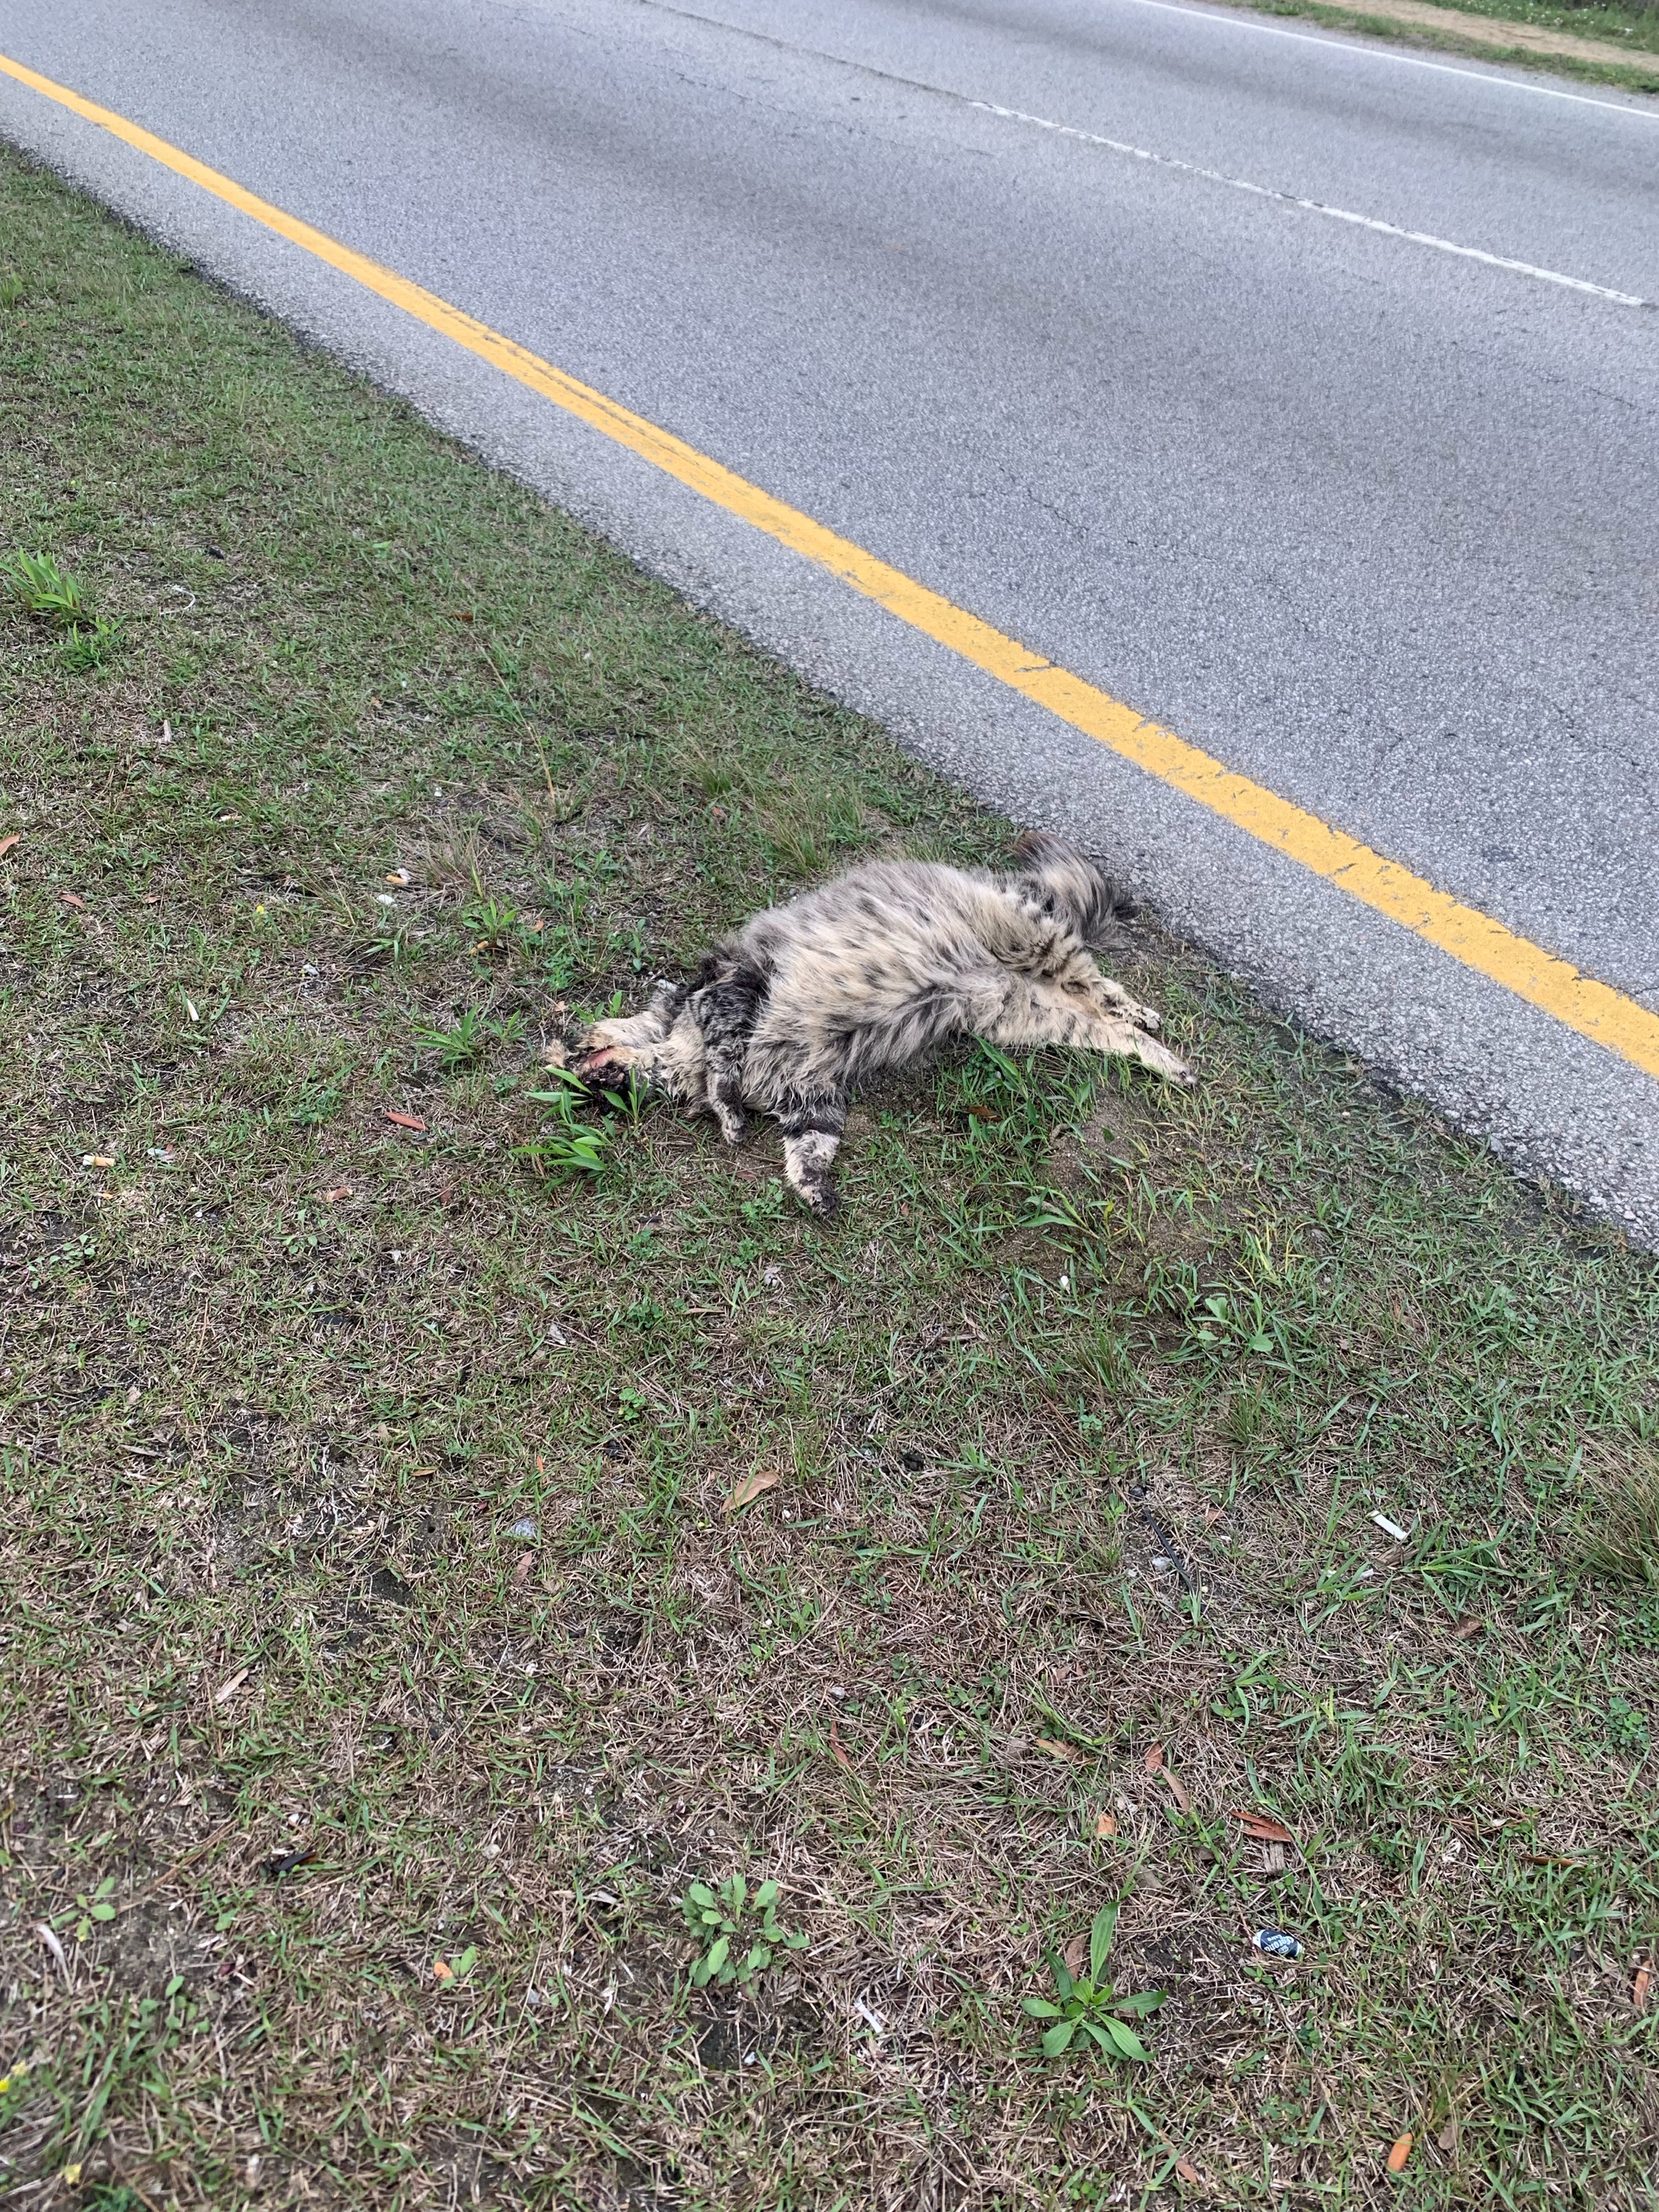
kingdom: Animalia
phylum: Chordata
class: Mammalia
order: Carnivora
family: Felidae
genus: Felis
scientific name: Felis catus
